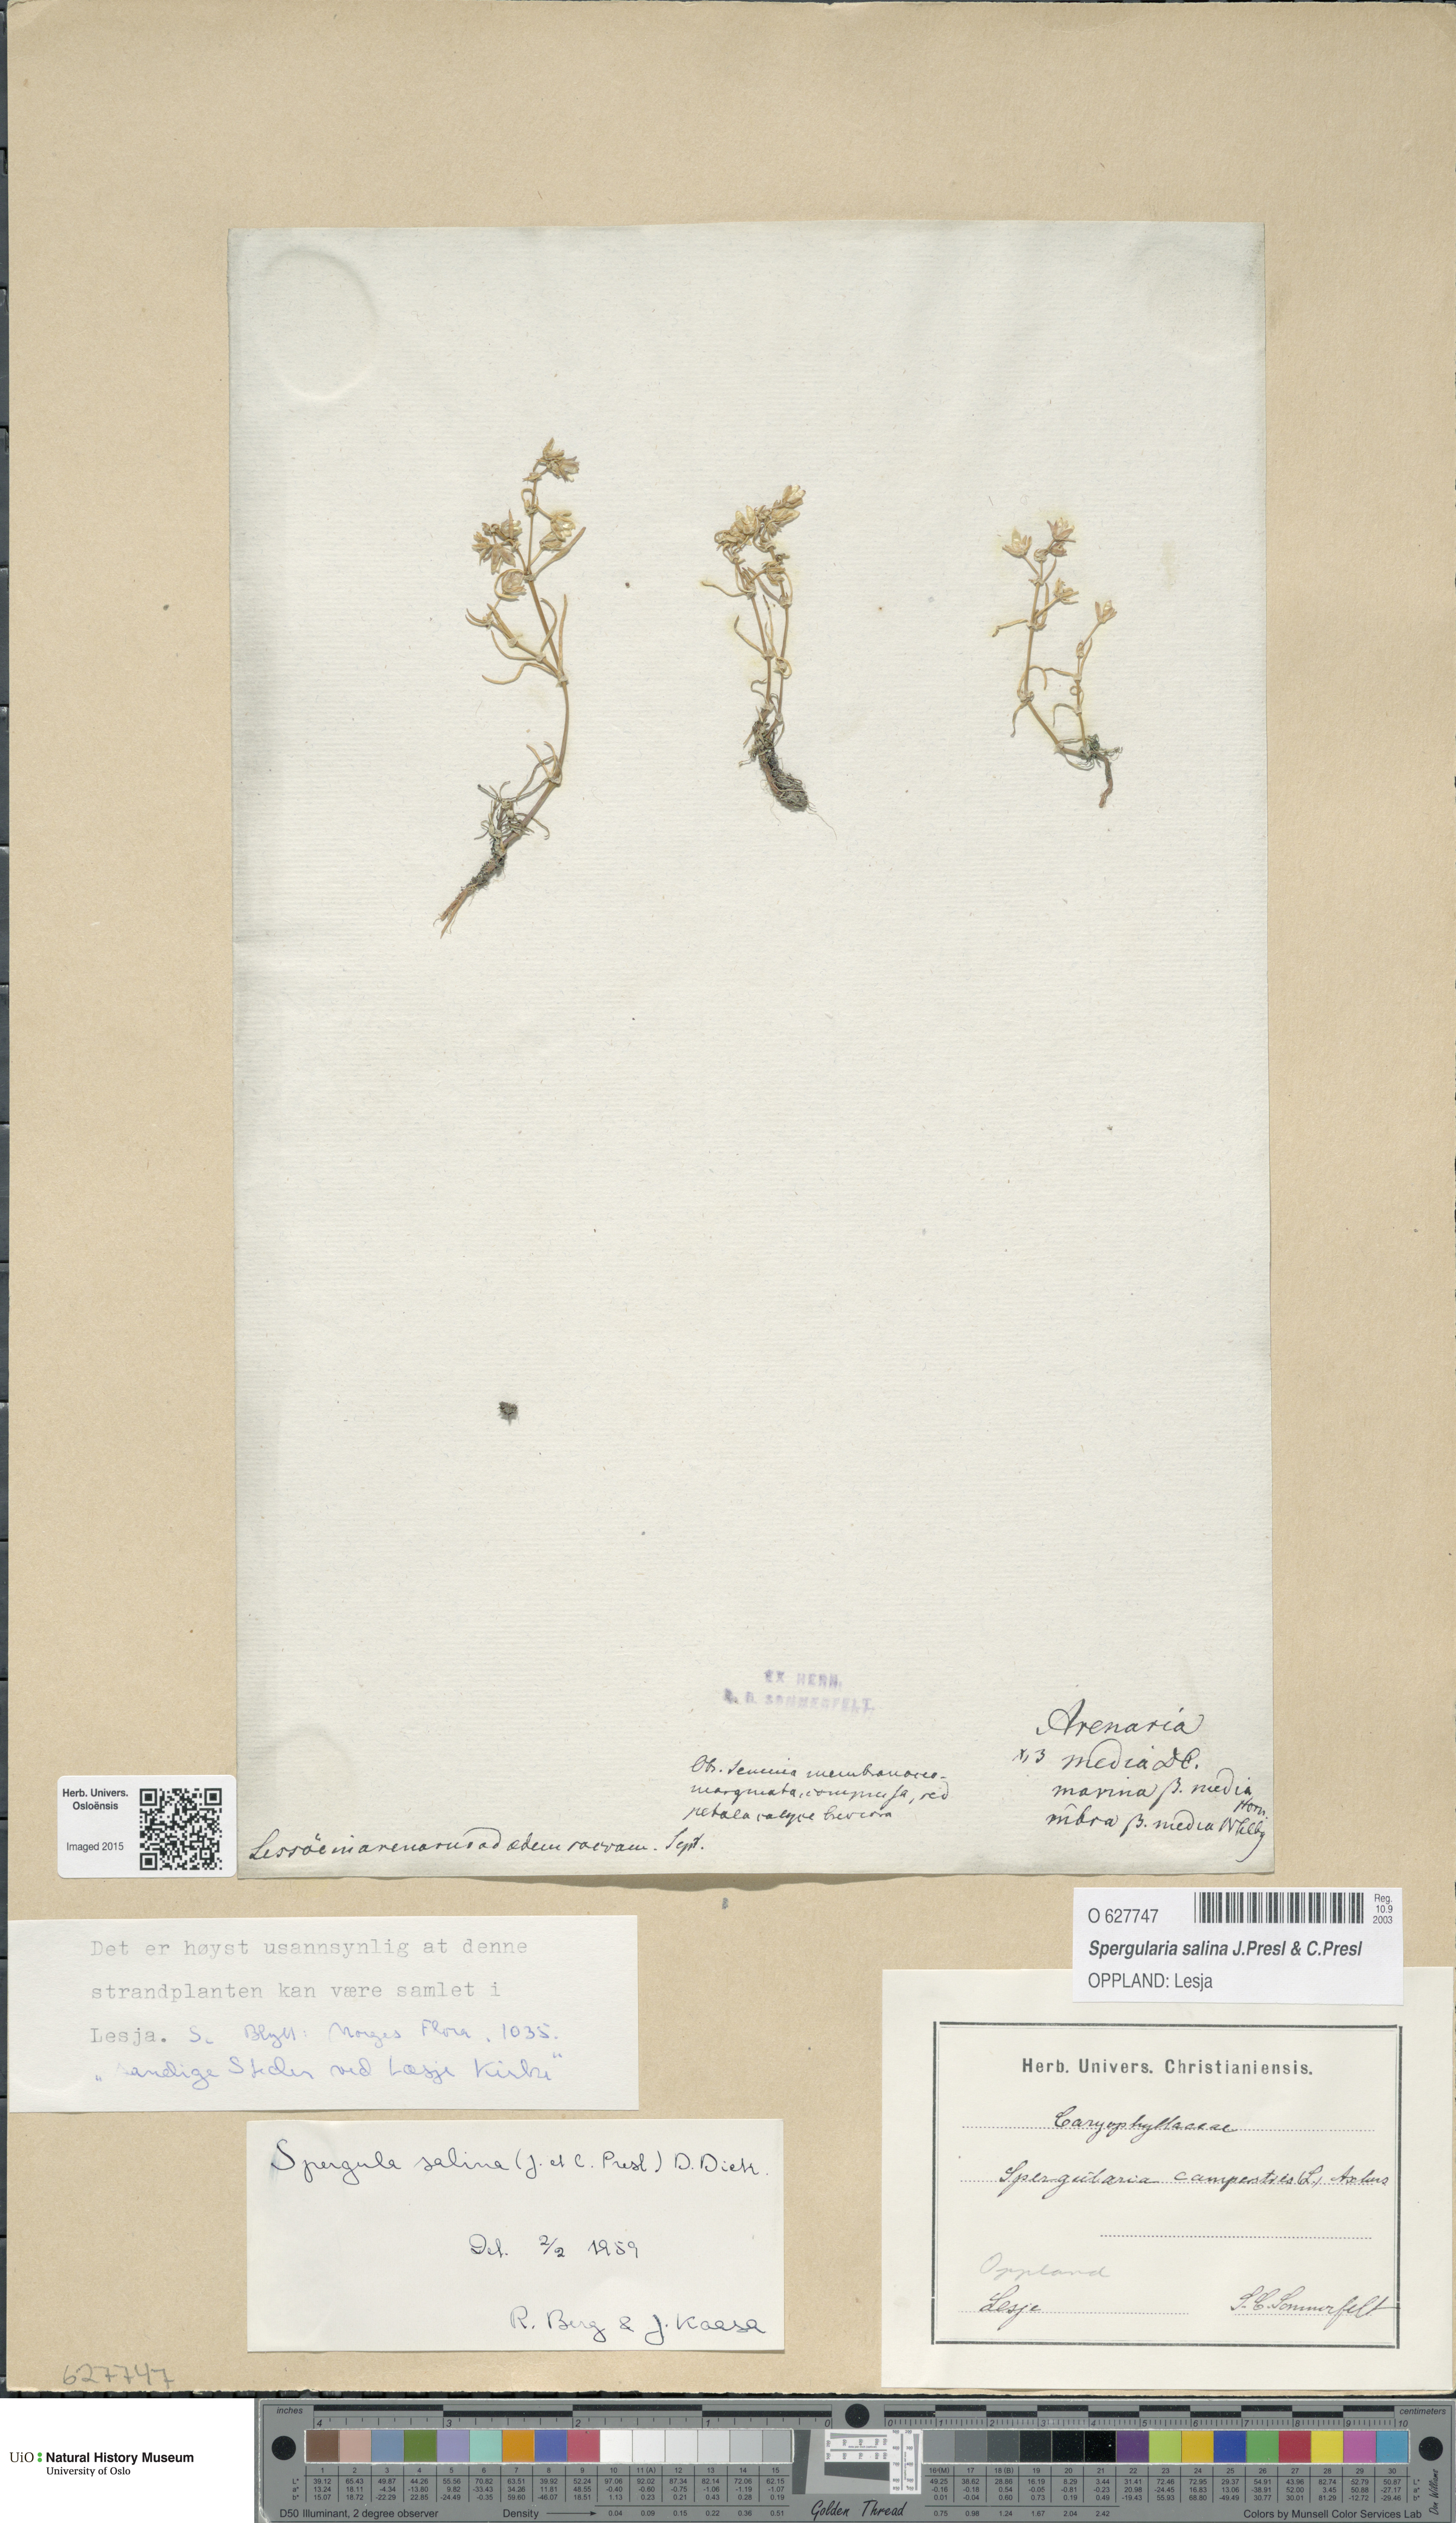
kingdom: Plantae
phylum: Tracheophyta
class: Magnoliopsida
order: Caryophyllales
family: Caryophyllaceae
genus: Spergularia
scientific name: Spergularia marina
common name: Lesser sea-spurrey
